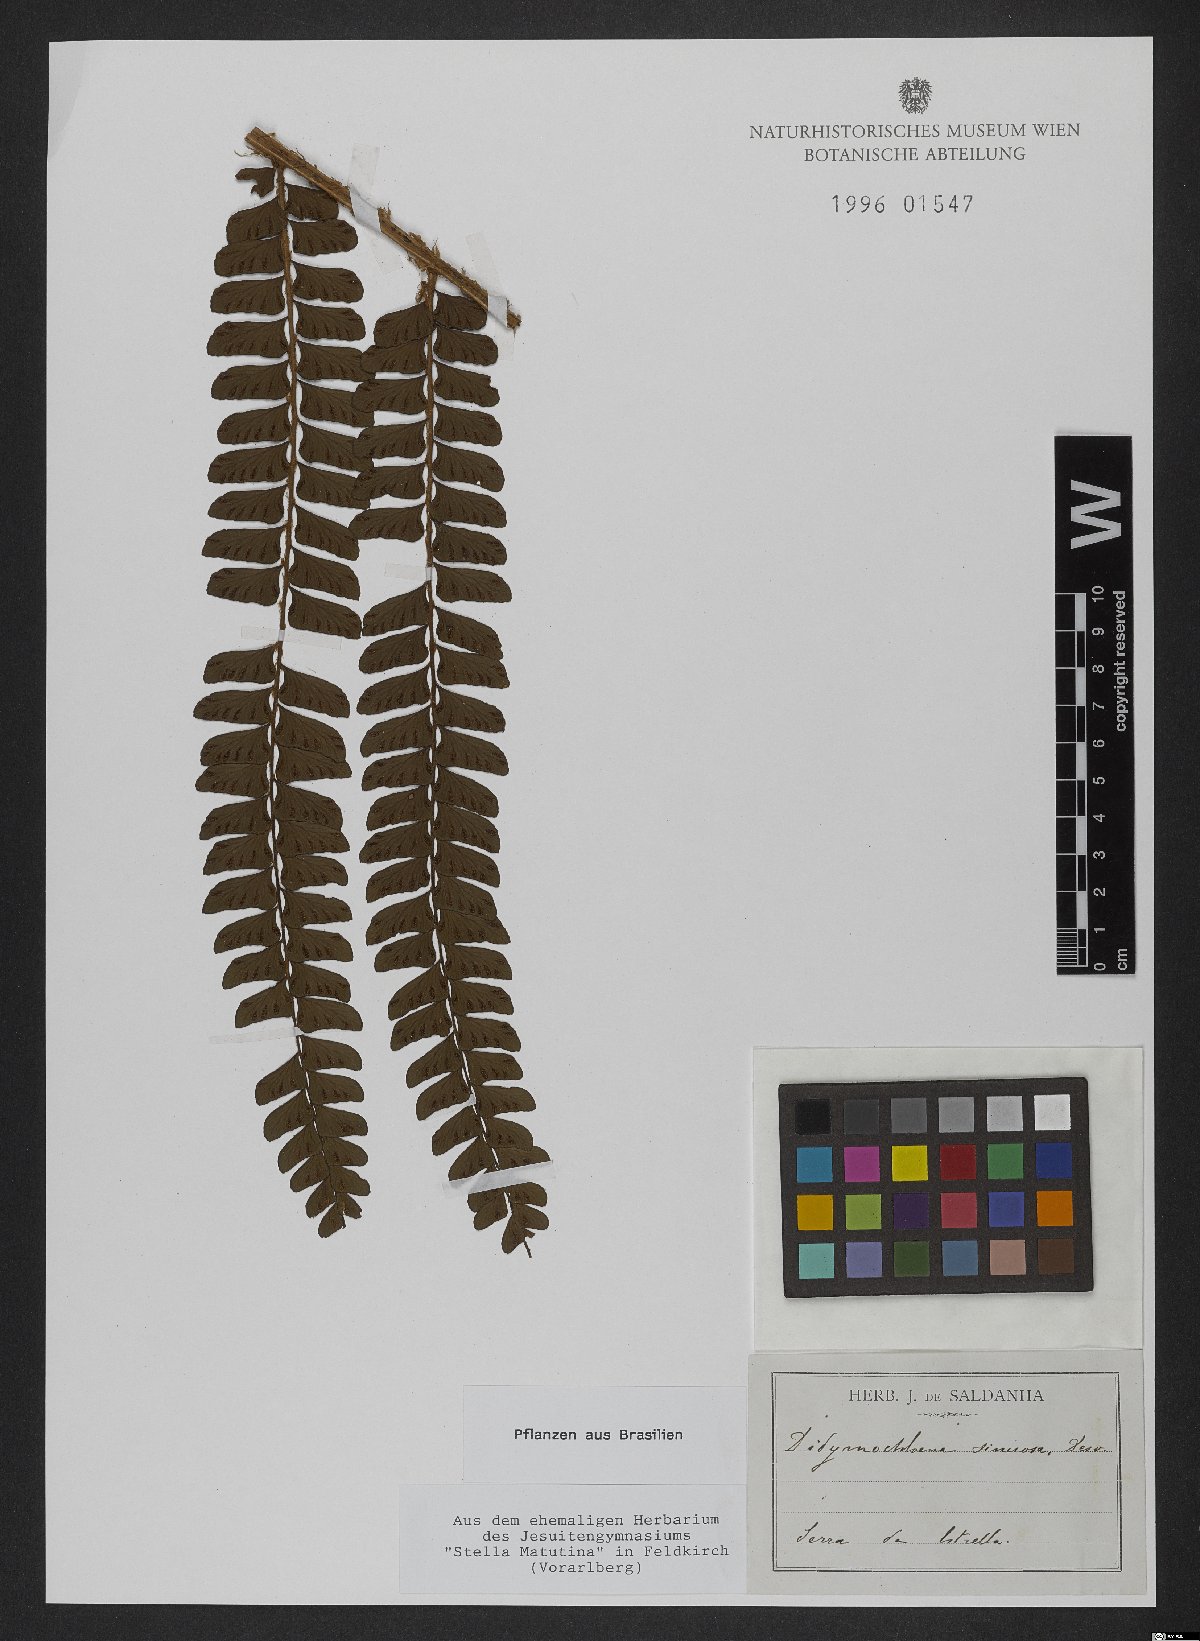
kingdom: Plantae
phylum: Tracheophyta
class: Polypodiopsida
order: Polypodiales
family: Didymochlaenaceae
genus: Didymochlaena
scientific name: Didymochlaena truncatula
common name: Mahogany fern
